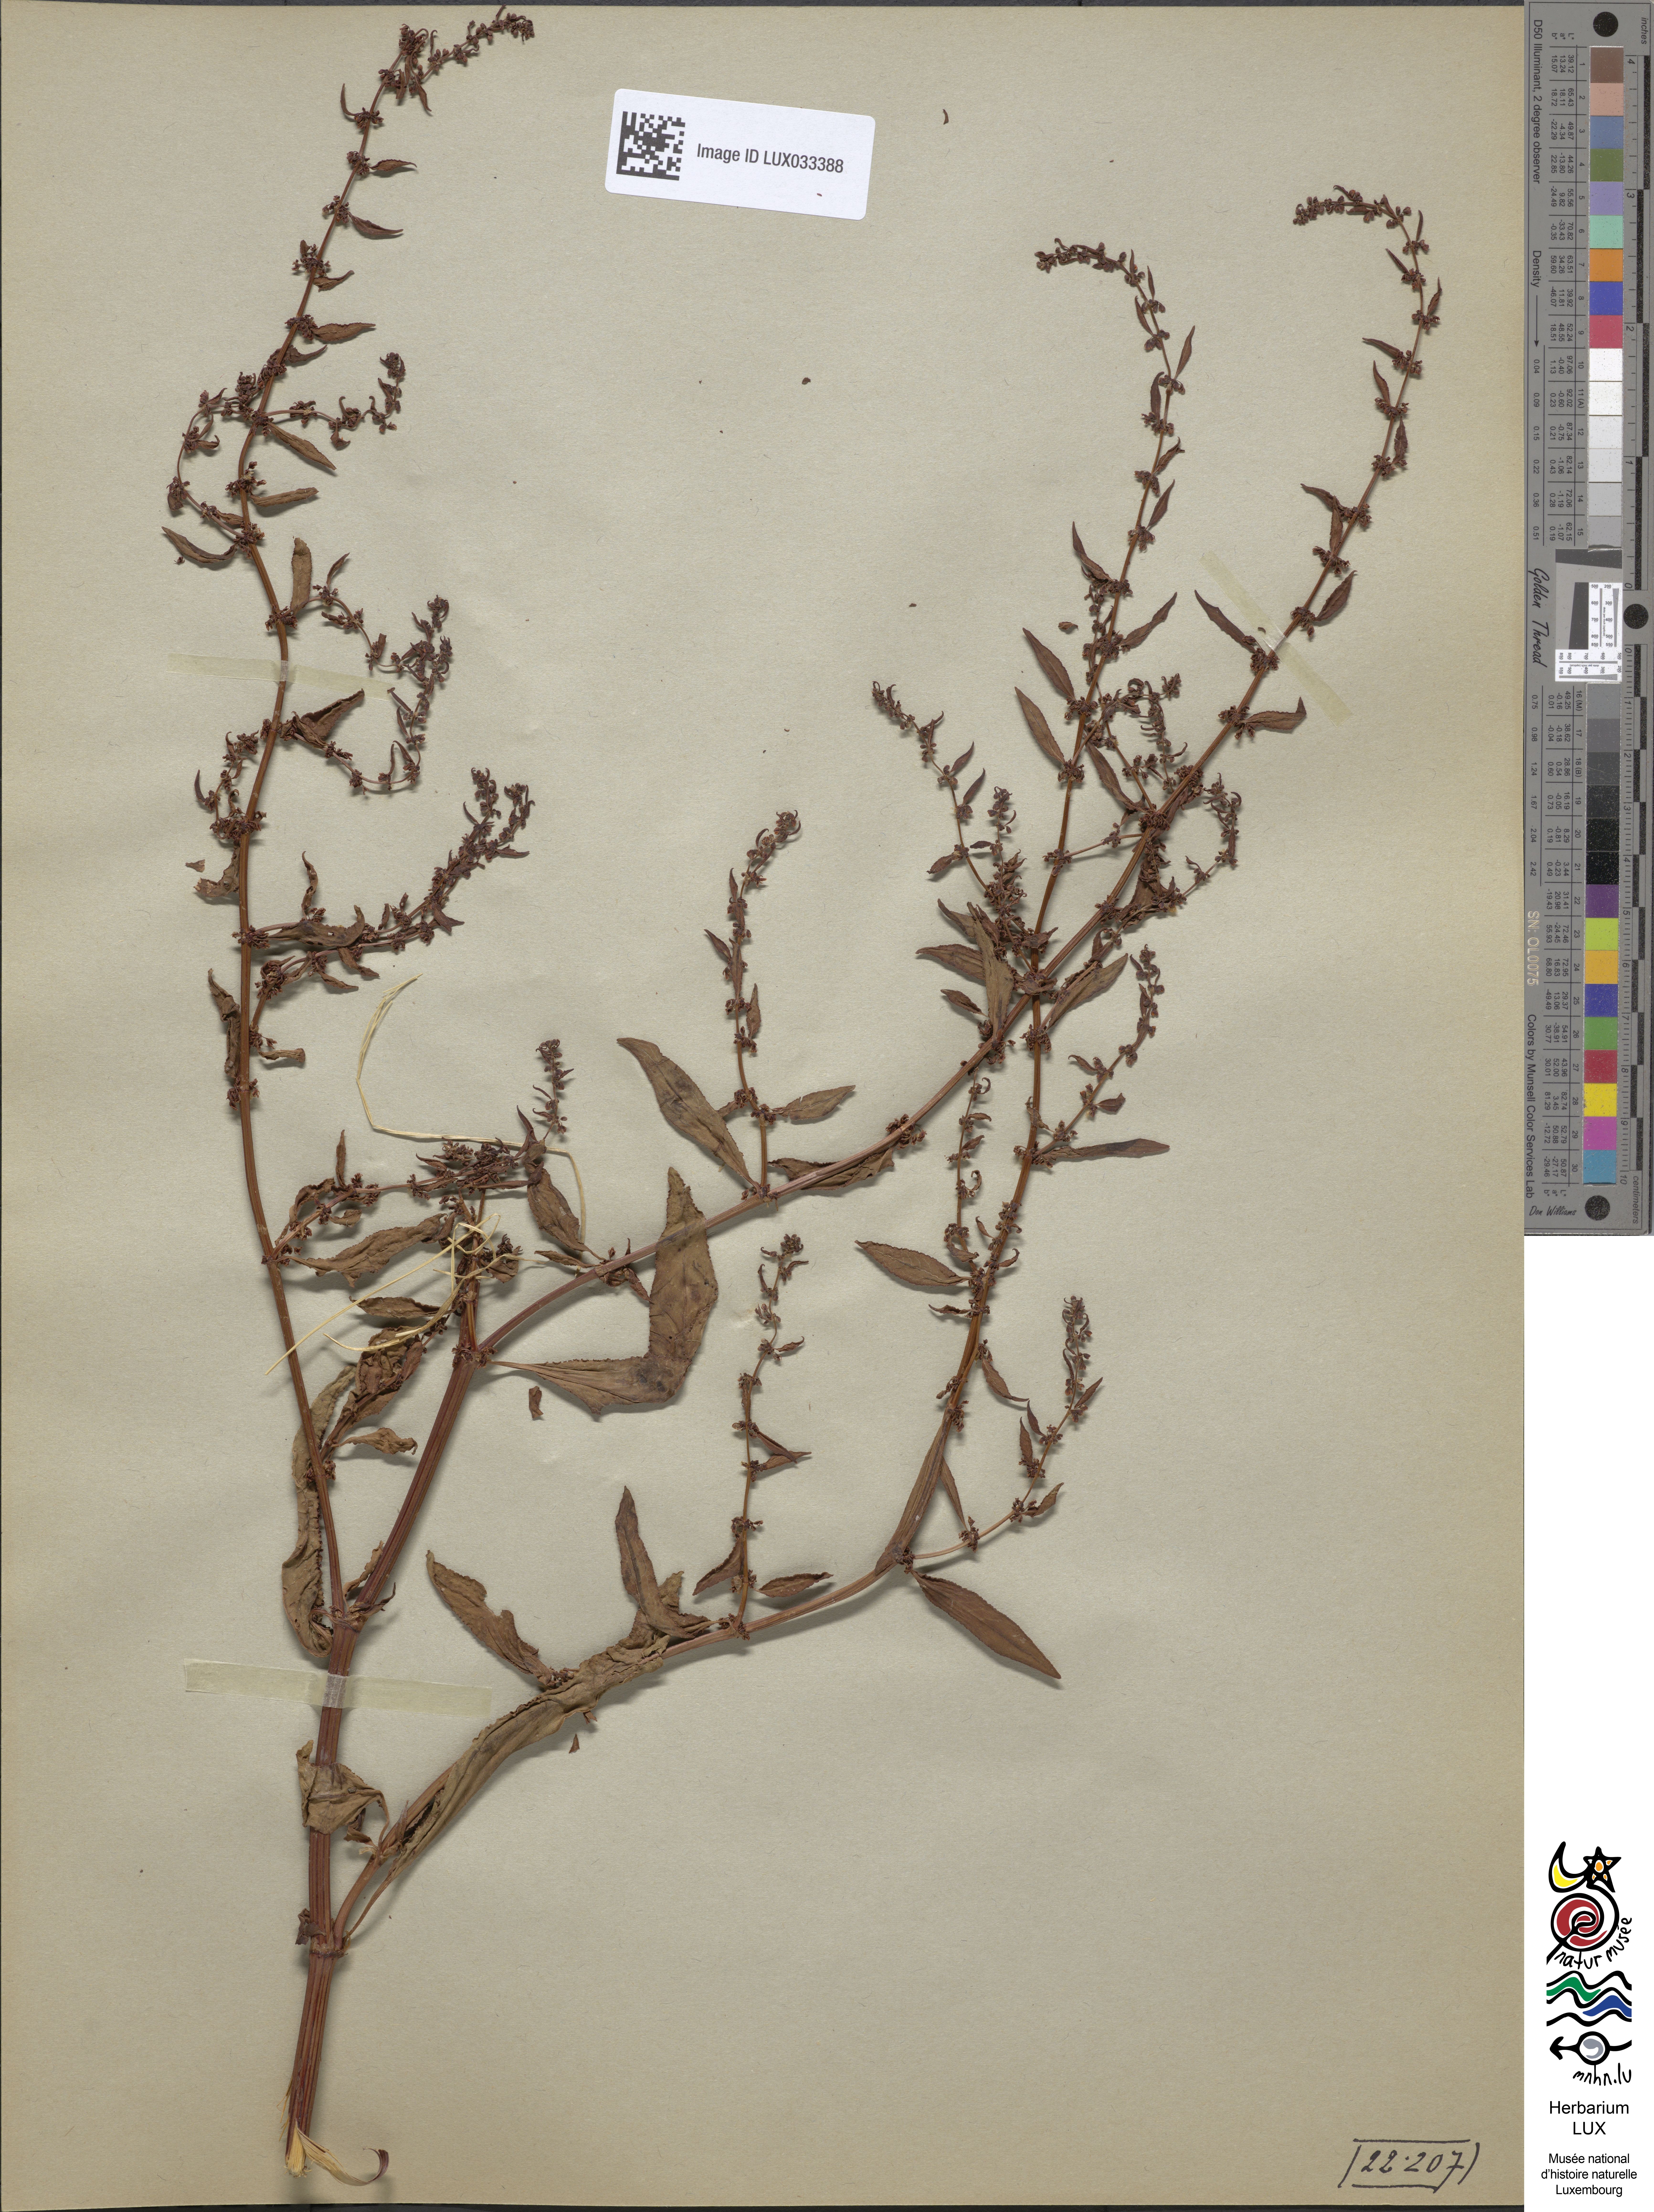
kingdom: Plantae
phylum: Tracheophyta
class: Magnoliopsida
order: Caryophyllales
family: Polygonaceae
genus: Rumex
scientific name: Rumex conglomeratus
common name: Clustered dock
